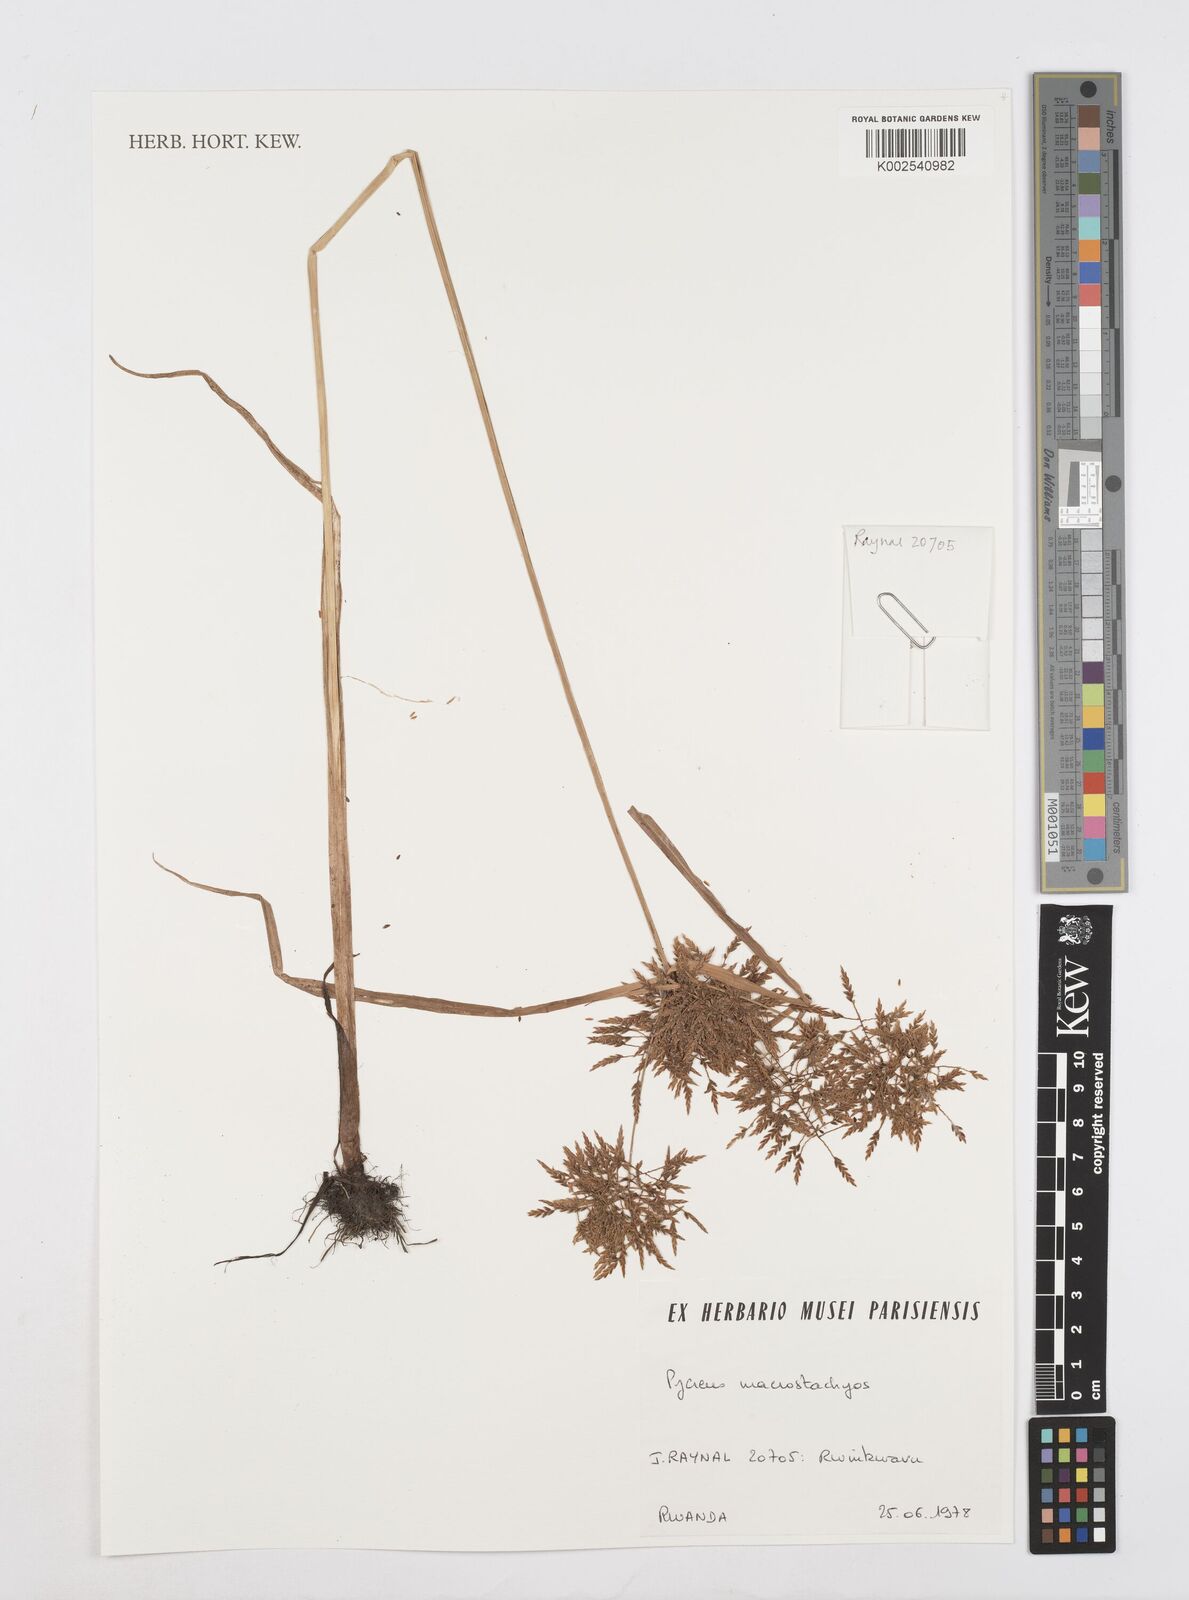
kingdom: Plantae
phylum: Tracheophyta
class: Liliopsida
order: Poales
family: Cyperaceae
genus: Cyperus
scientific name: Cyperus macrostachyos
